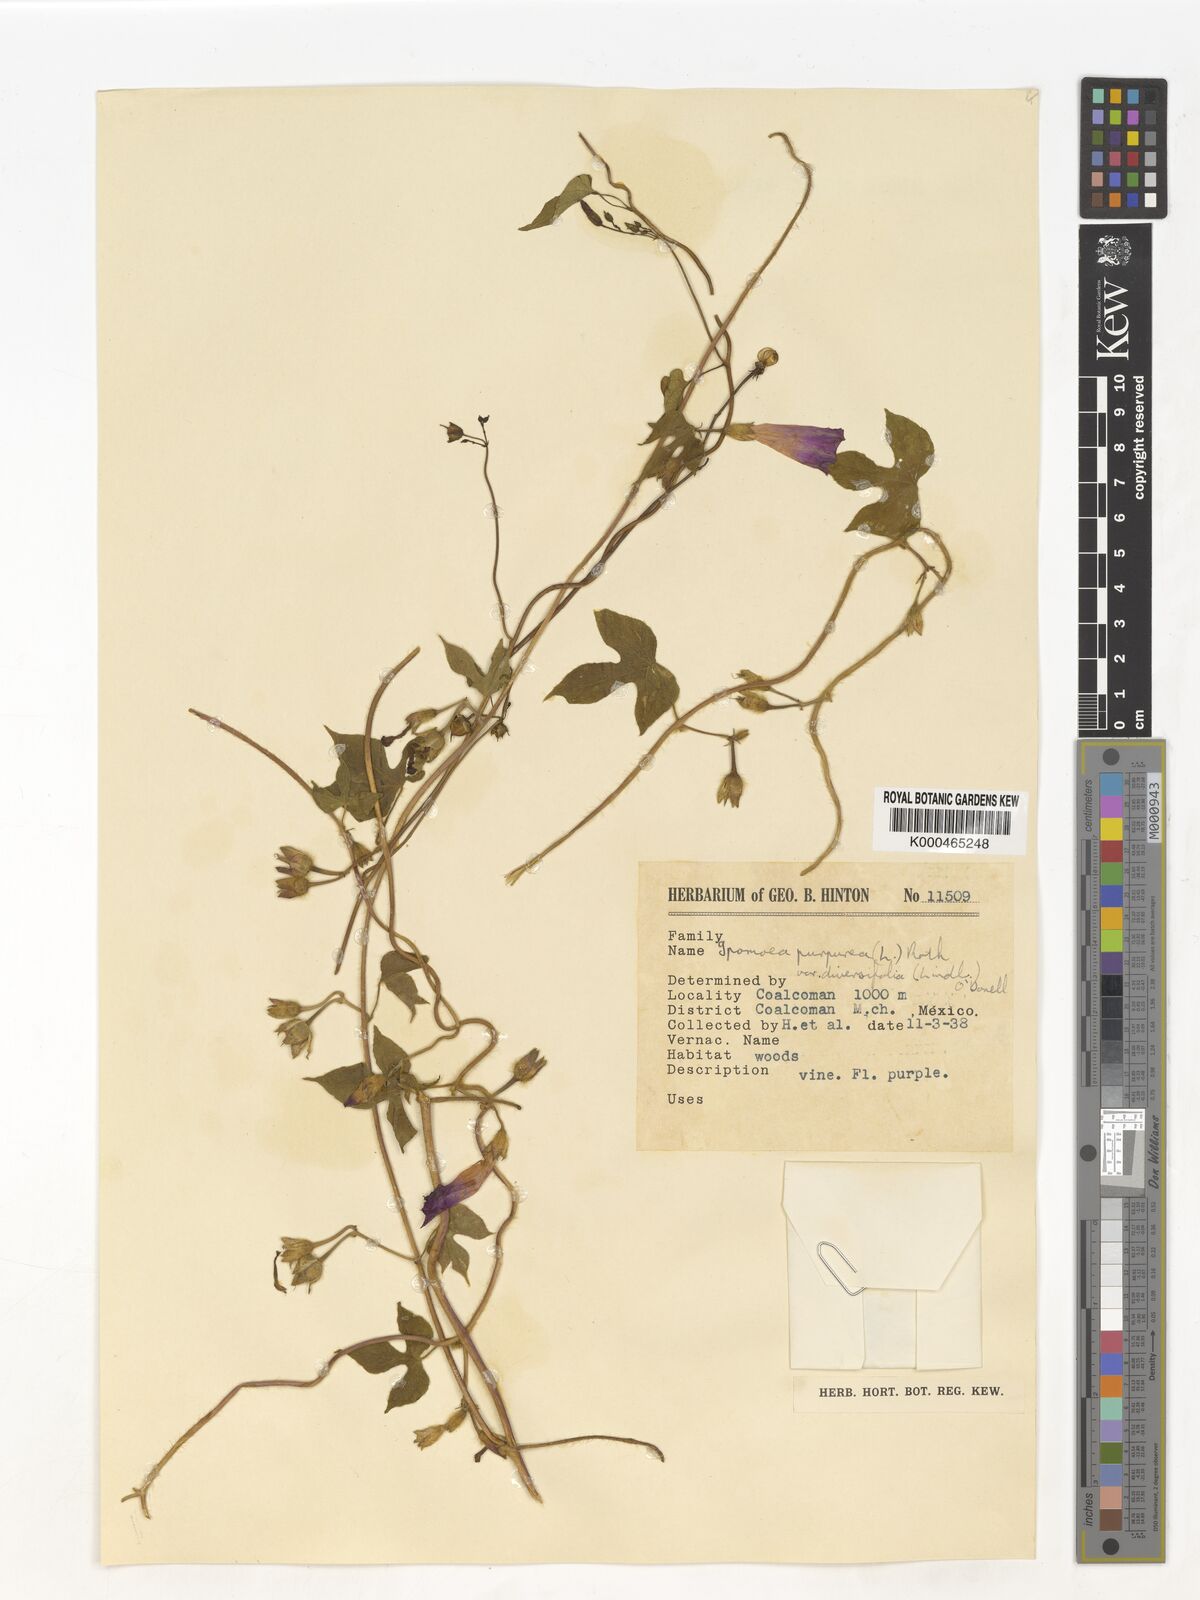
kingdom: Plantae
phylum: Tracheophyta
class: Magnoliopsida
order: Solanales
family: Convolvulaceae
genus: Ipomoea
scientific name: Ipomoea purpurea
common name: Common morning-glory
